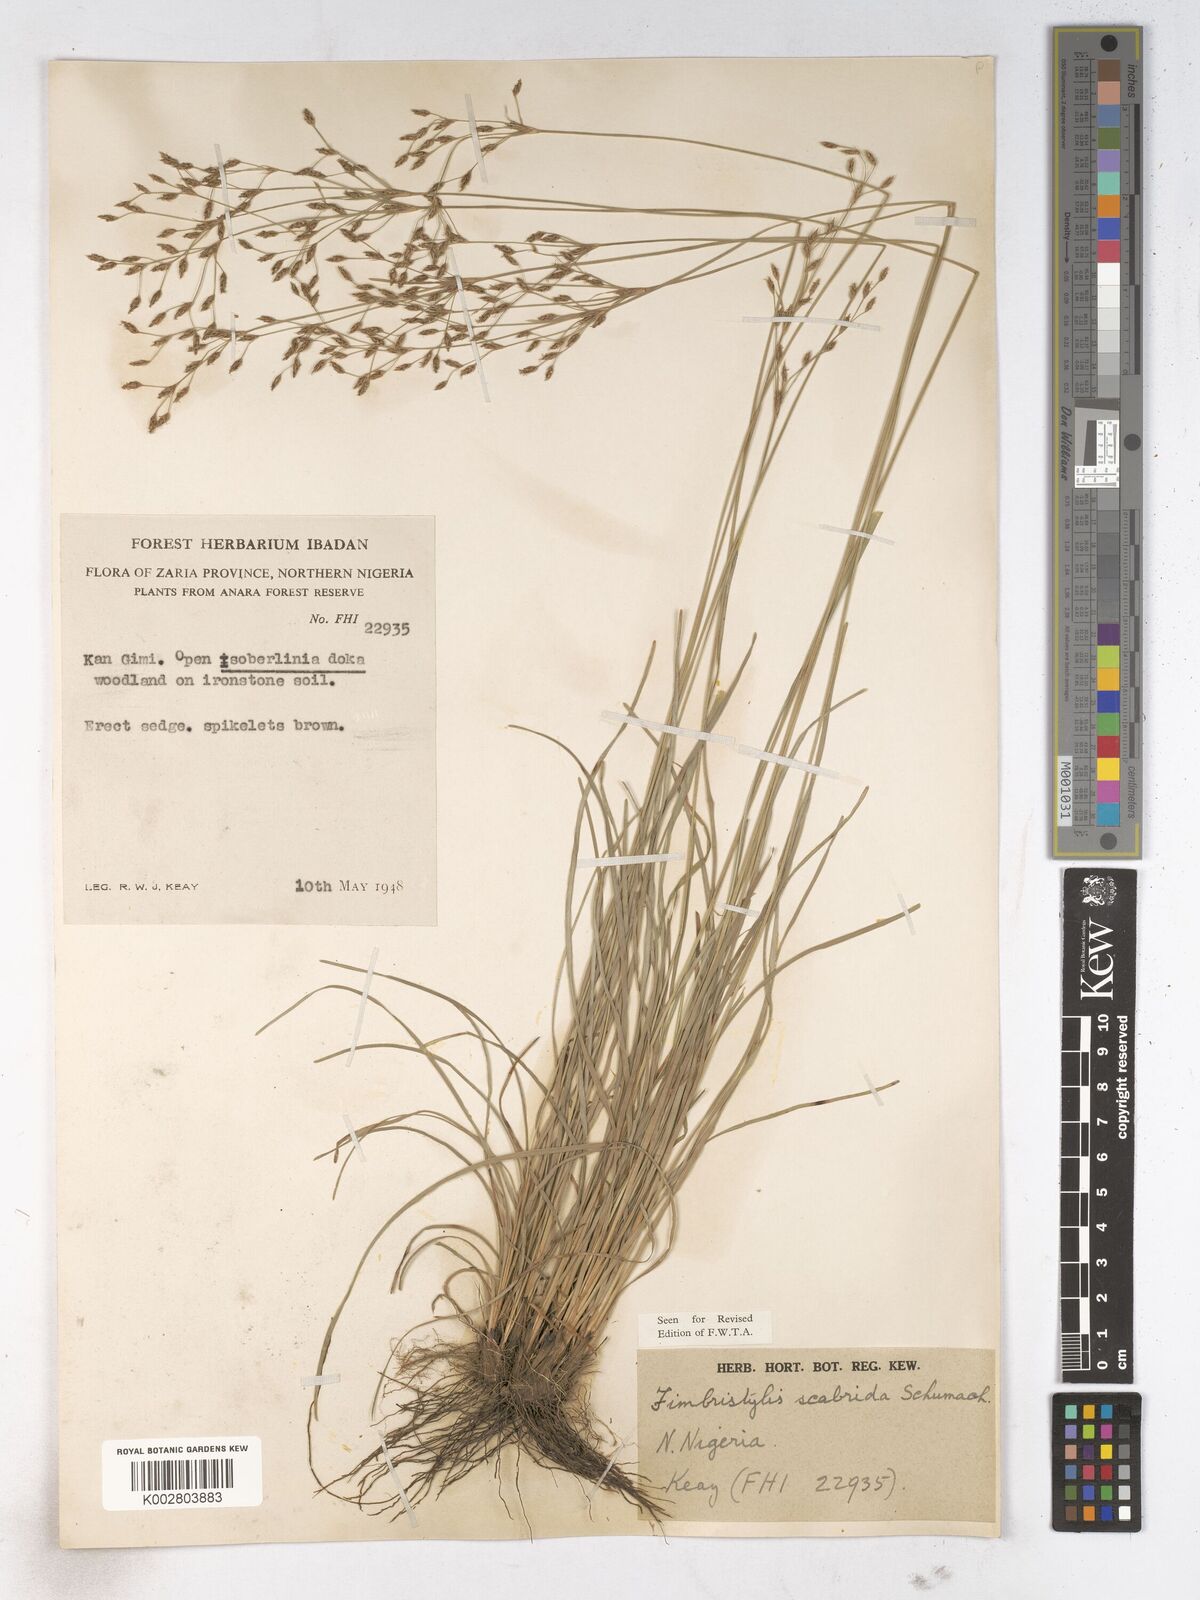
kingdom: Plantae
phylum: Tracheophyta
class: Liliopsida
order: Poales
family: Cyperaceae
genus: Fimbristylis
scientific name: Fimbristylis scabrida
